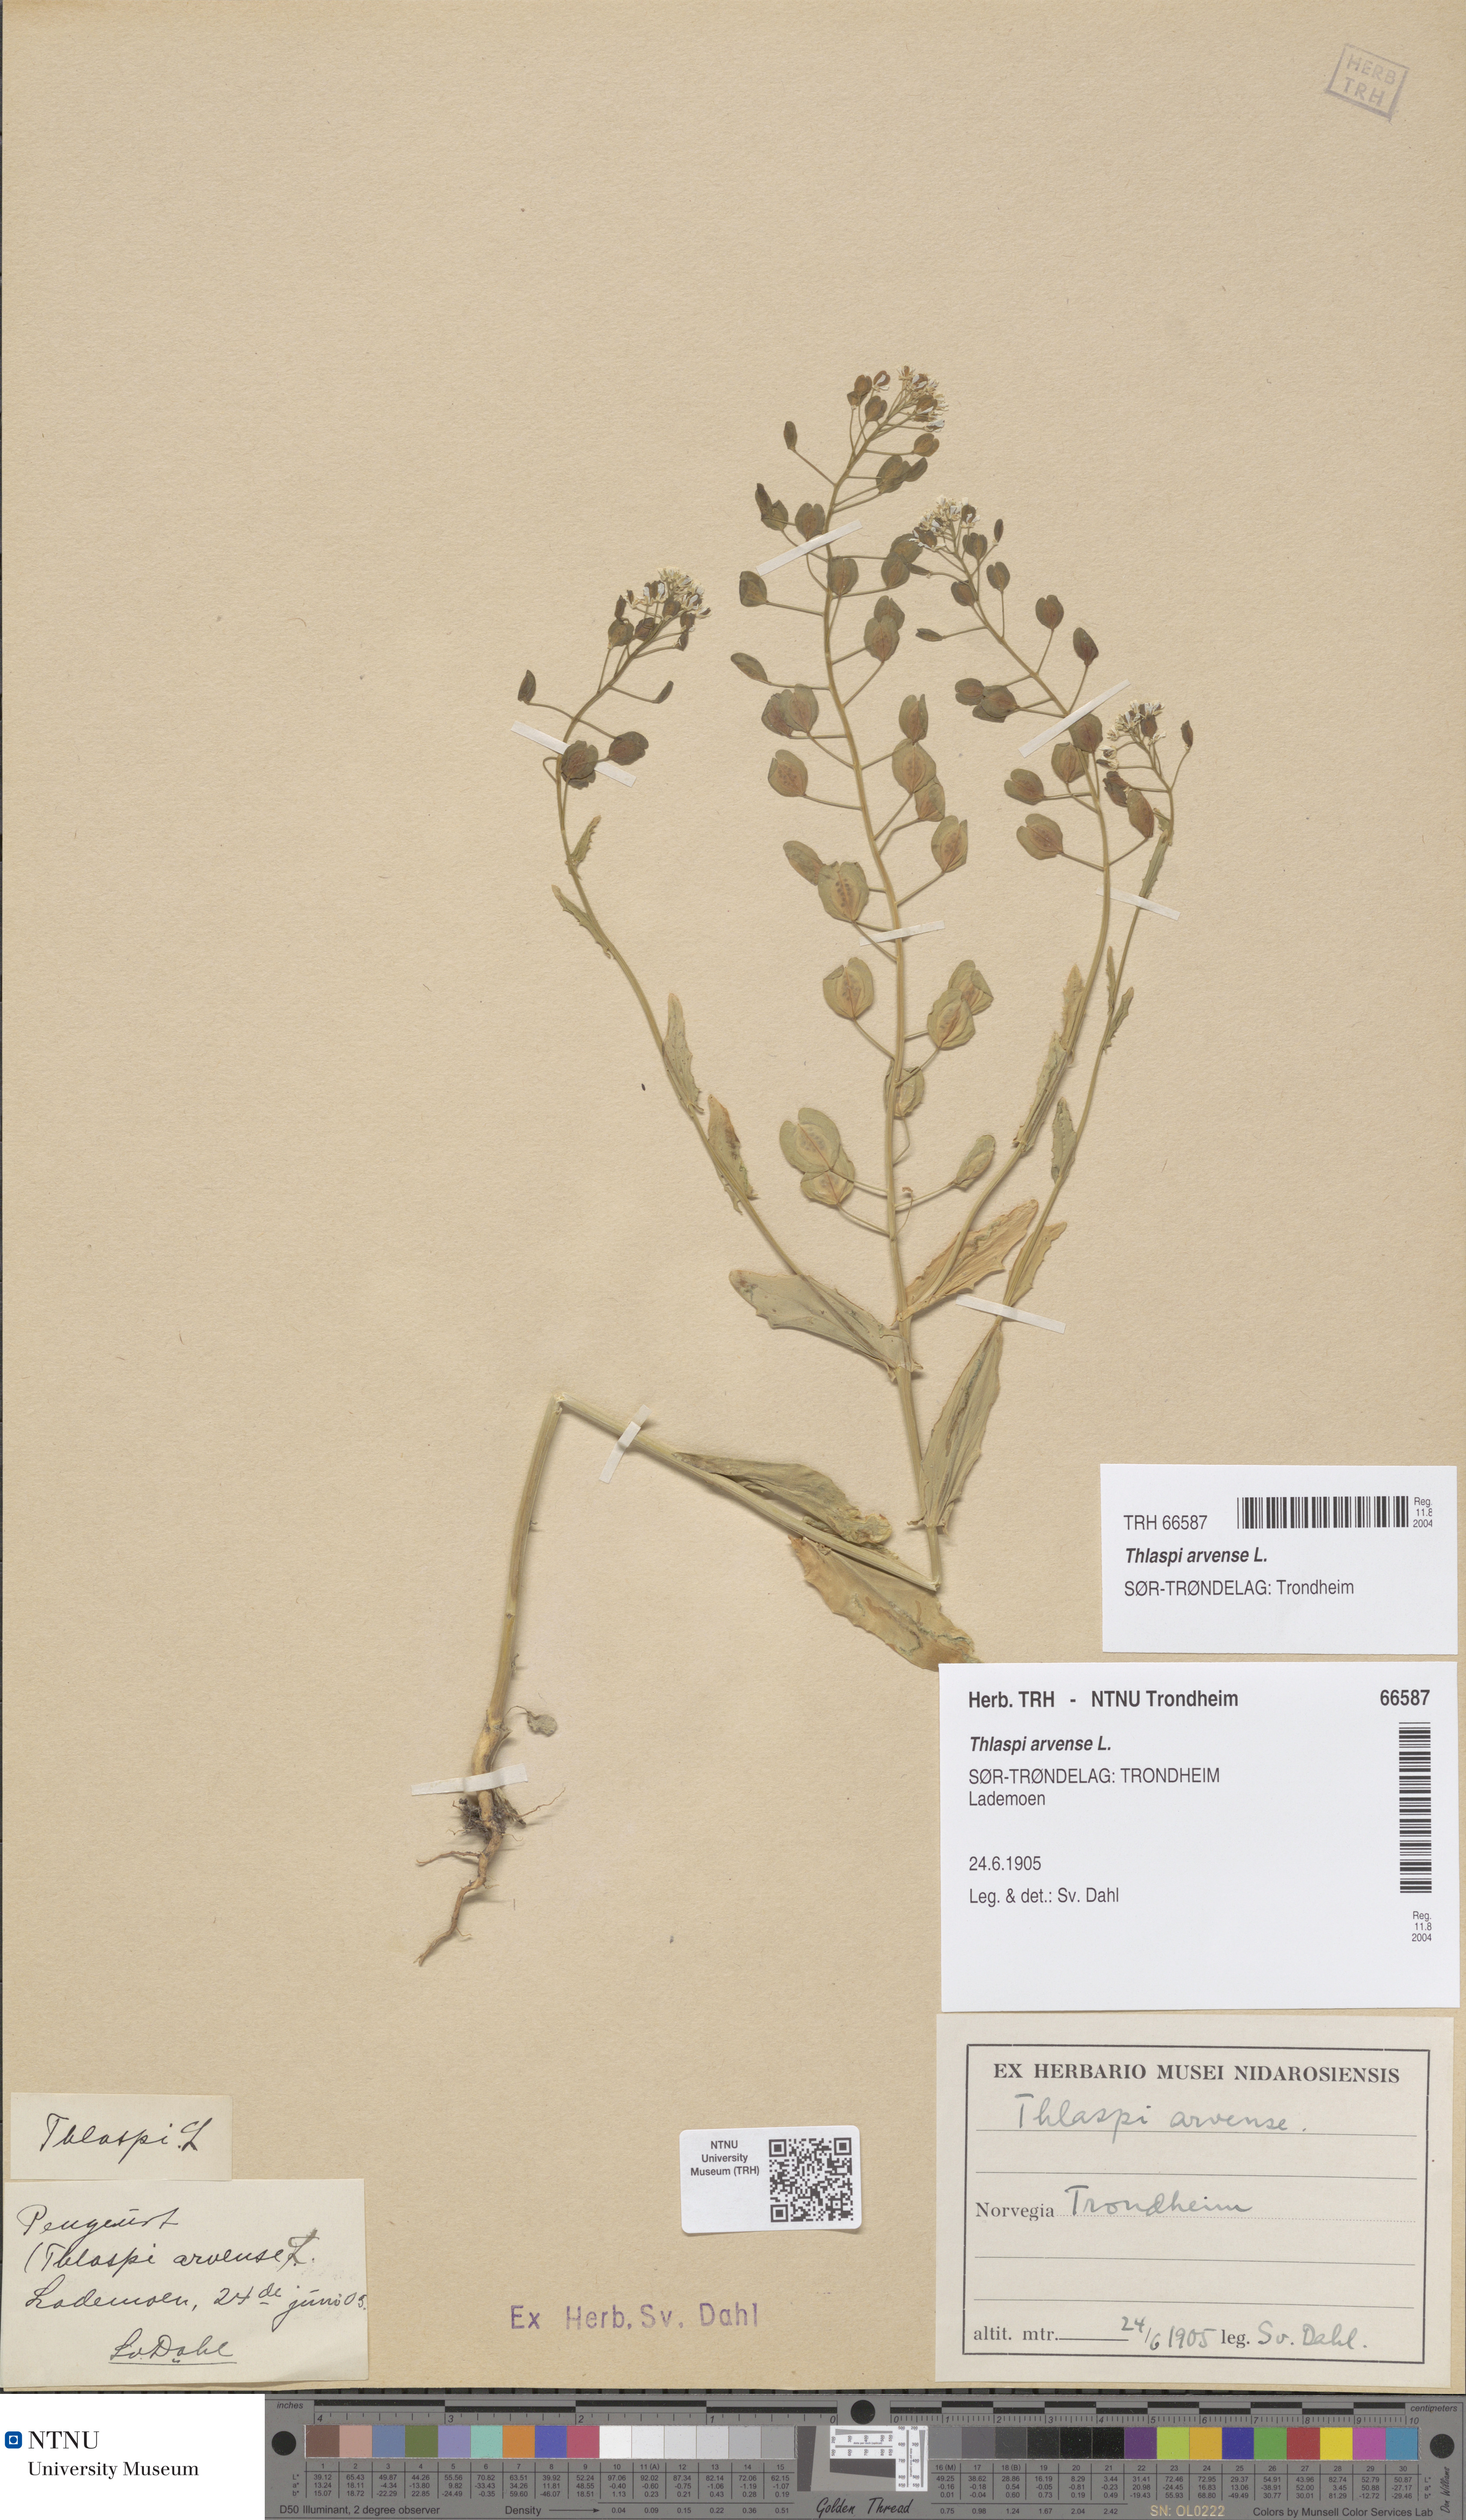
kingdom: Plantae
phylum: Tracheophyta
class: Magnoliopsida
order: Brassicales
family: Brassicaceae
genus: Thlaspi
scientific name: Thlaspi arvense
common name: Field pennycress
